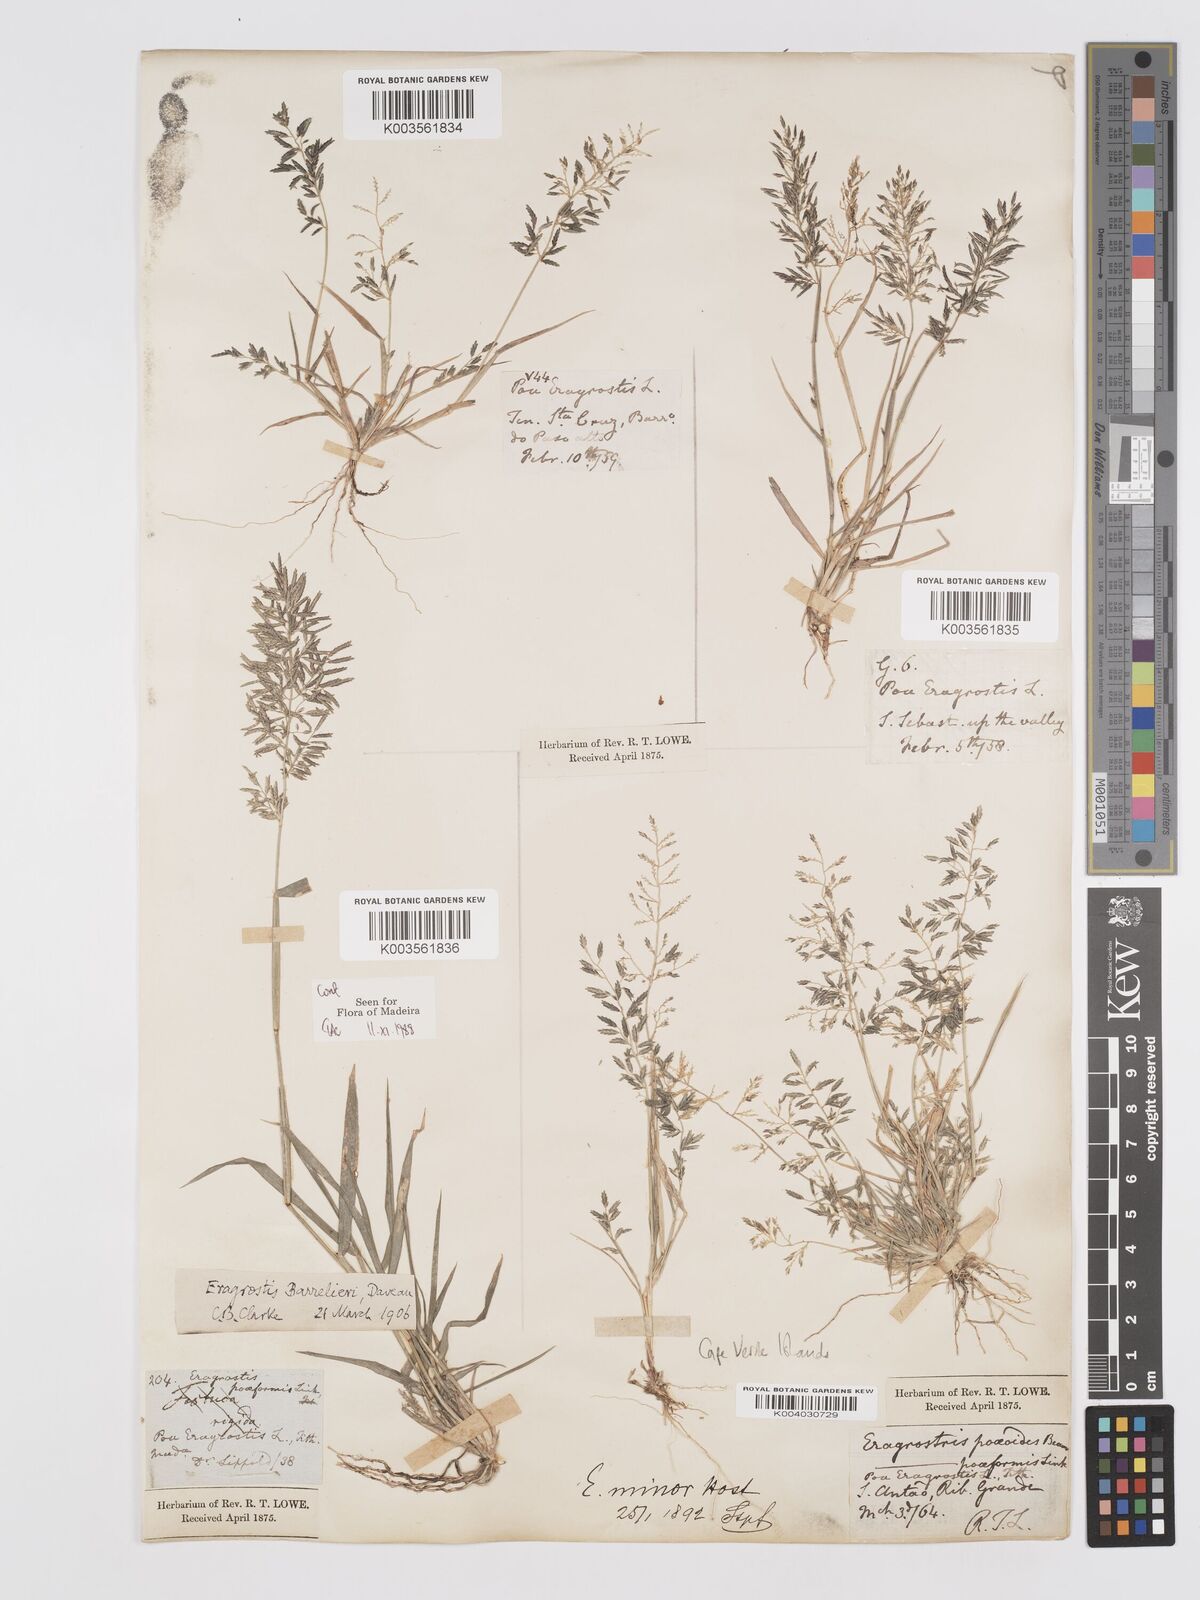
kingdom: Plantae
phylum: Tracheophyta
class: Liliopsida
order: Poales
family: Poaceae
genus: Eragrostis
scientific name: Eragrostis barrelieri
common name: Mediterranean lovegrass
